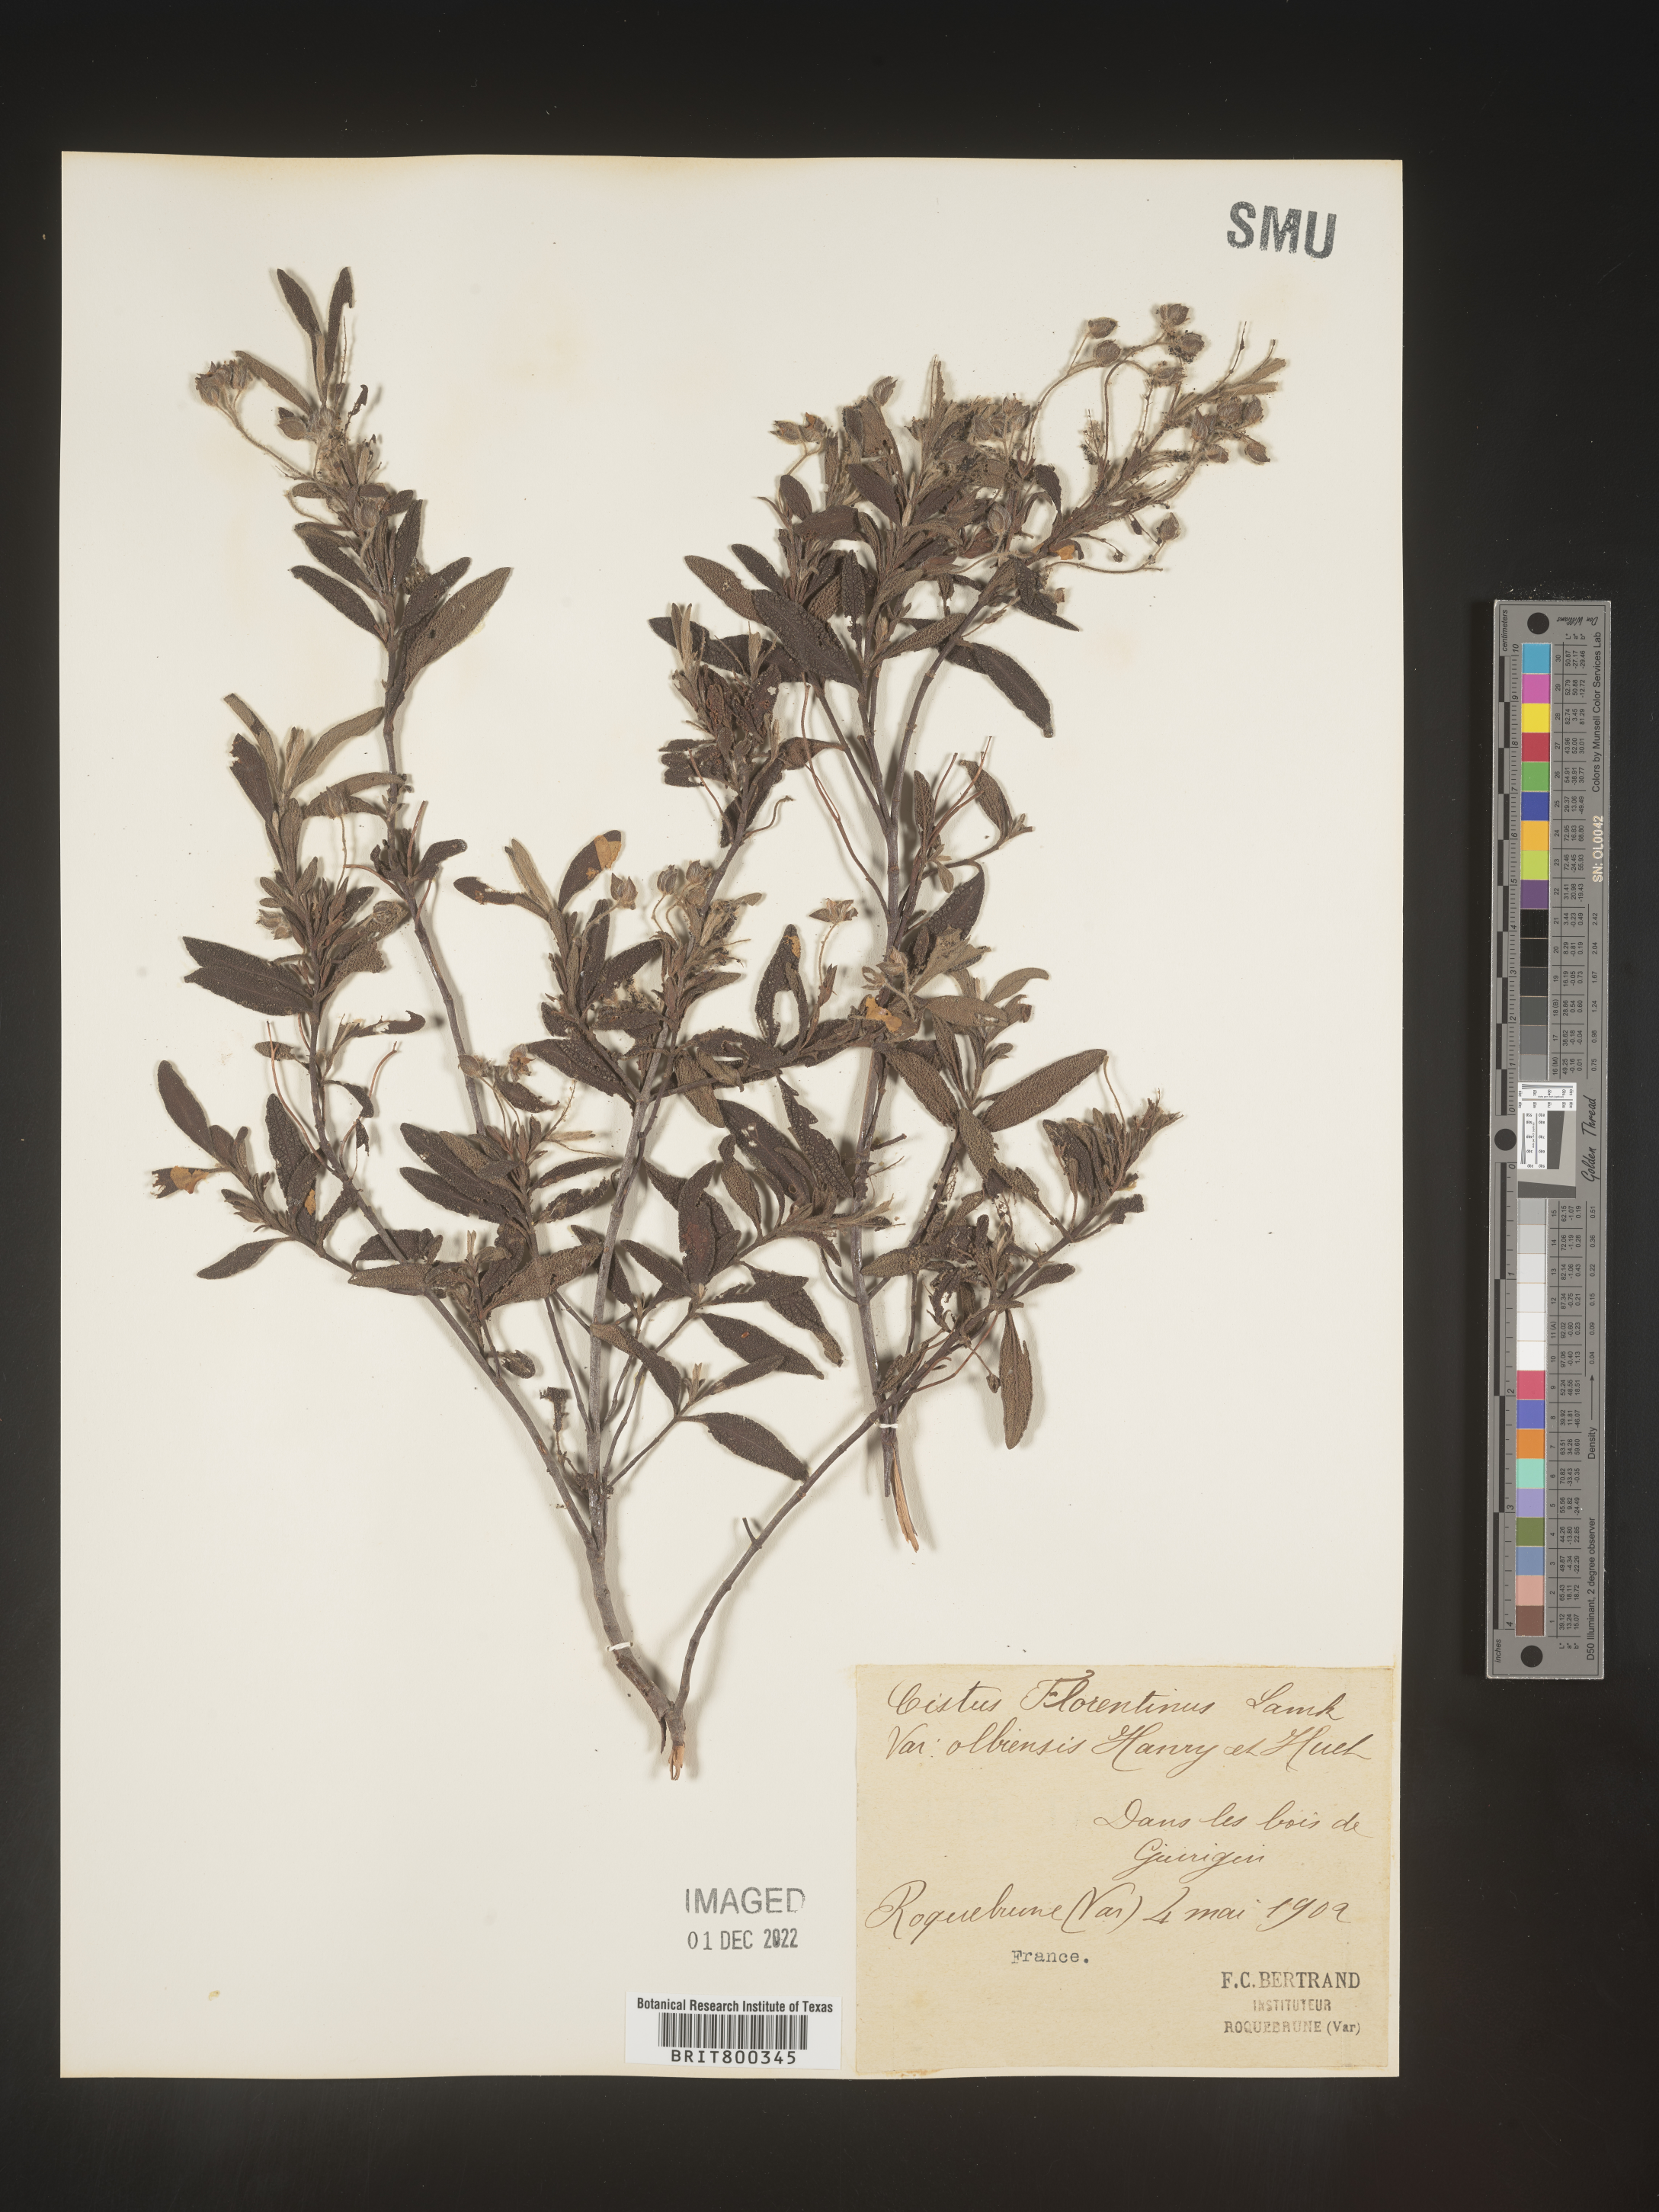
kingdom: Plantae
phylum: Tracheophyta
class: Magnoliopsida
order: Malvales
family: Cistaceae
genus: Cistus
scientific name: Cistus
